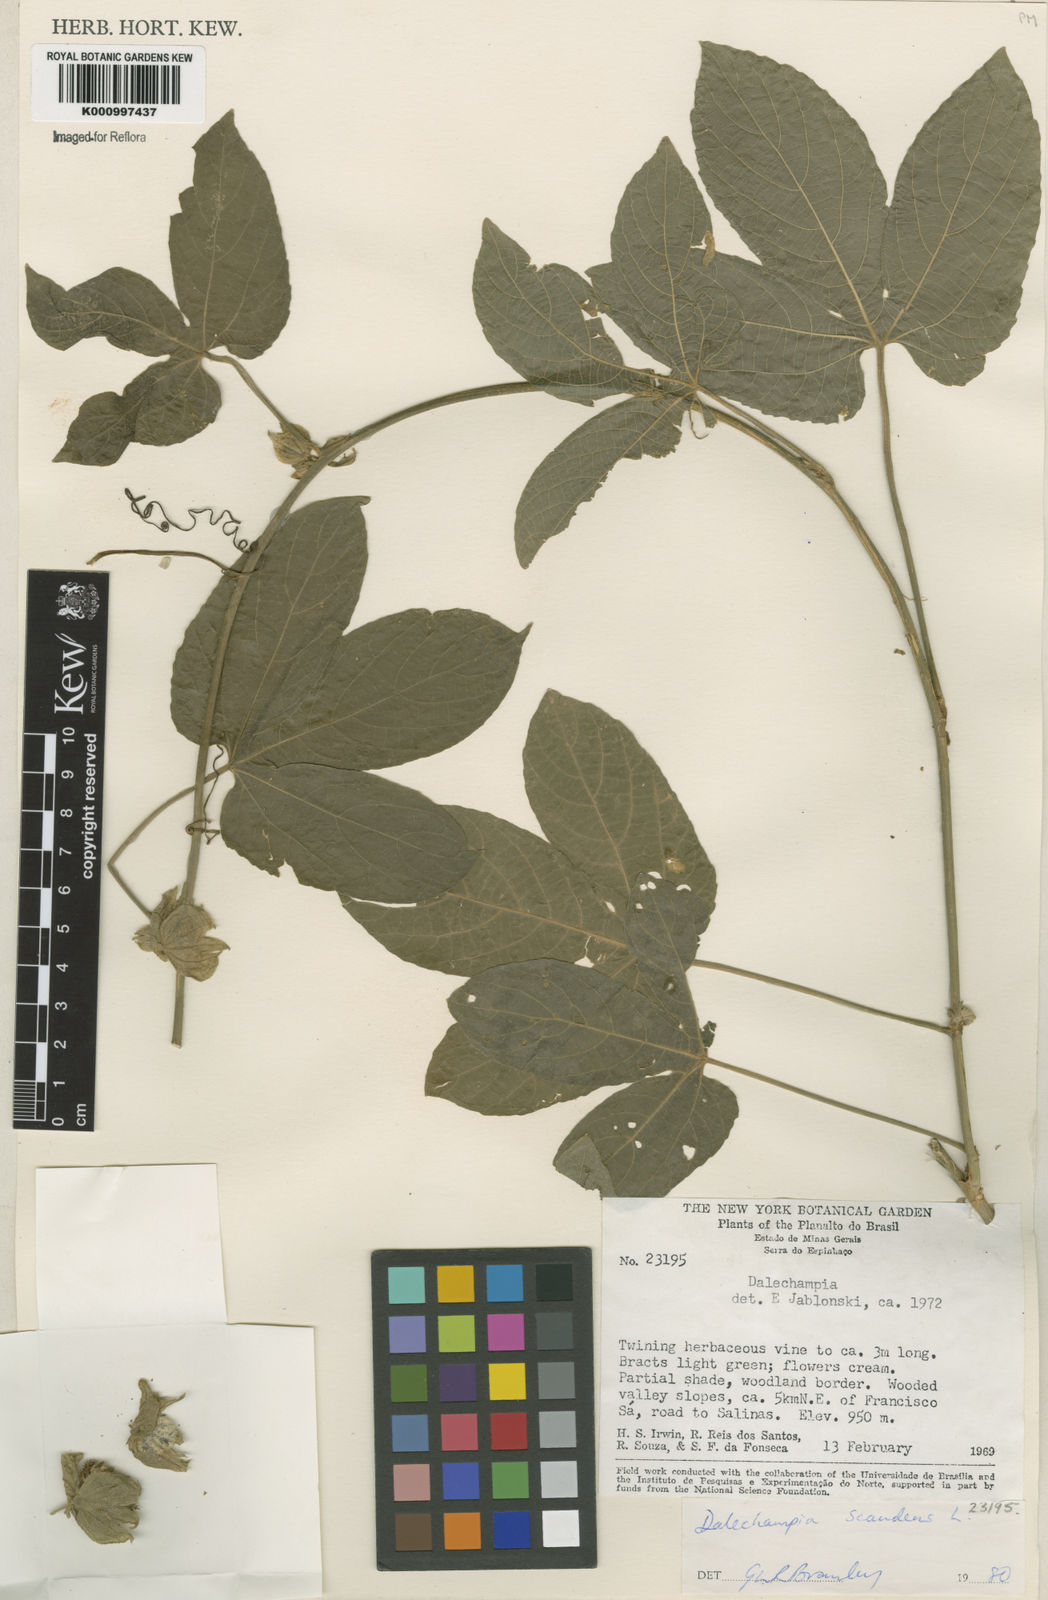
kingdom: Plantae
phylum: Tracheophyta
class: Magnoliopsida
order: Malpighiales
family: Euphorbiaceae
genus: Dalechampia
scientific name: Dalechampia scandens
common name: Spurgecreeper
